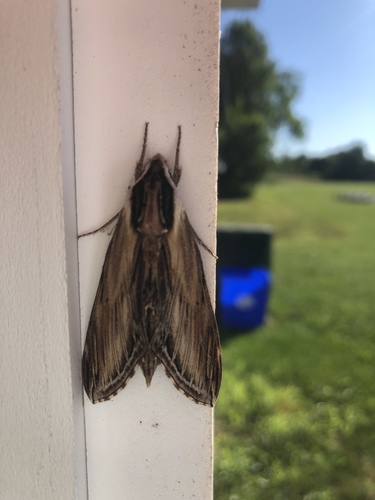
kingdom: Animalia
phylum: Arthropoda
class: Insecta
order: Lepidoptera
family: Sphingidae
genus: Sphinx
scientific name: Sphinx kalmiae
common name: Laurel sphinx
